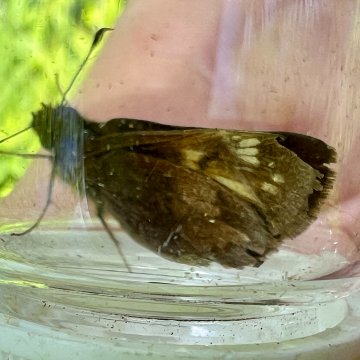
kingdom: Animalia
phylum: Arthropoda
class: Insecta
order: Lepidoptera
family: Hesperiidae
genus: Lon
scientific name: Lon hobomok
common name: Hobomok Skipper
